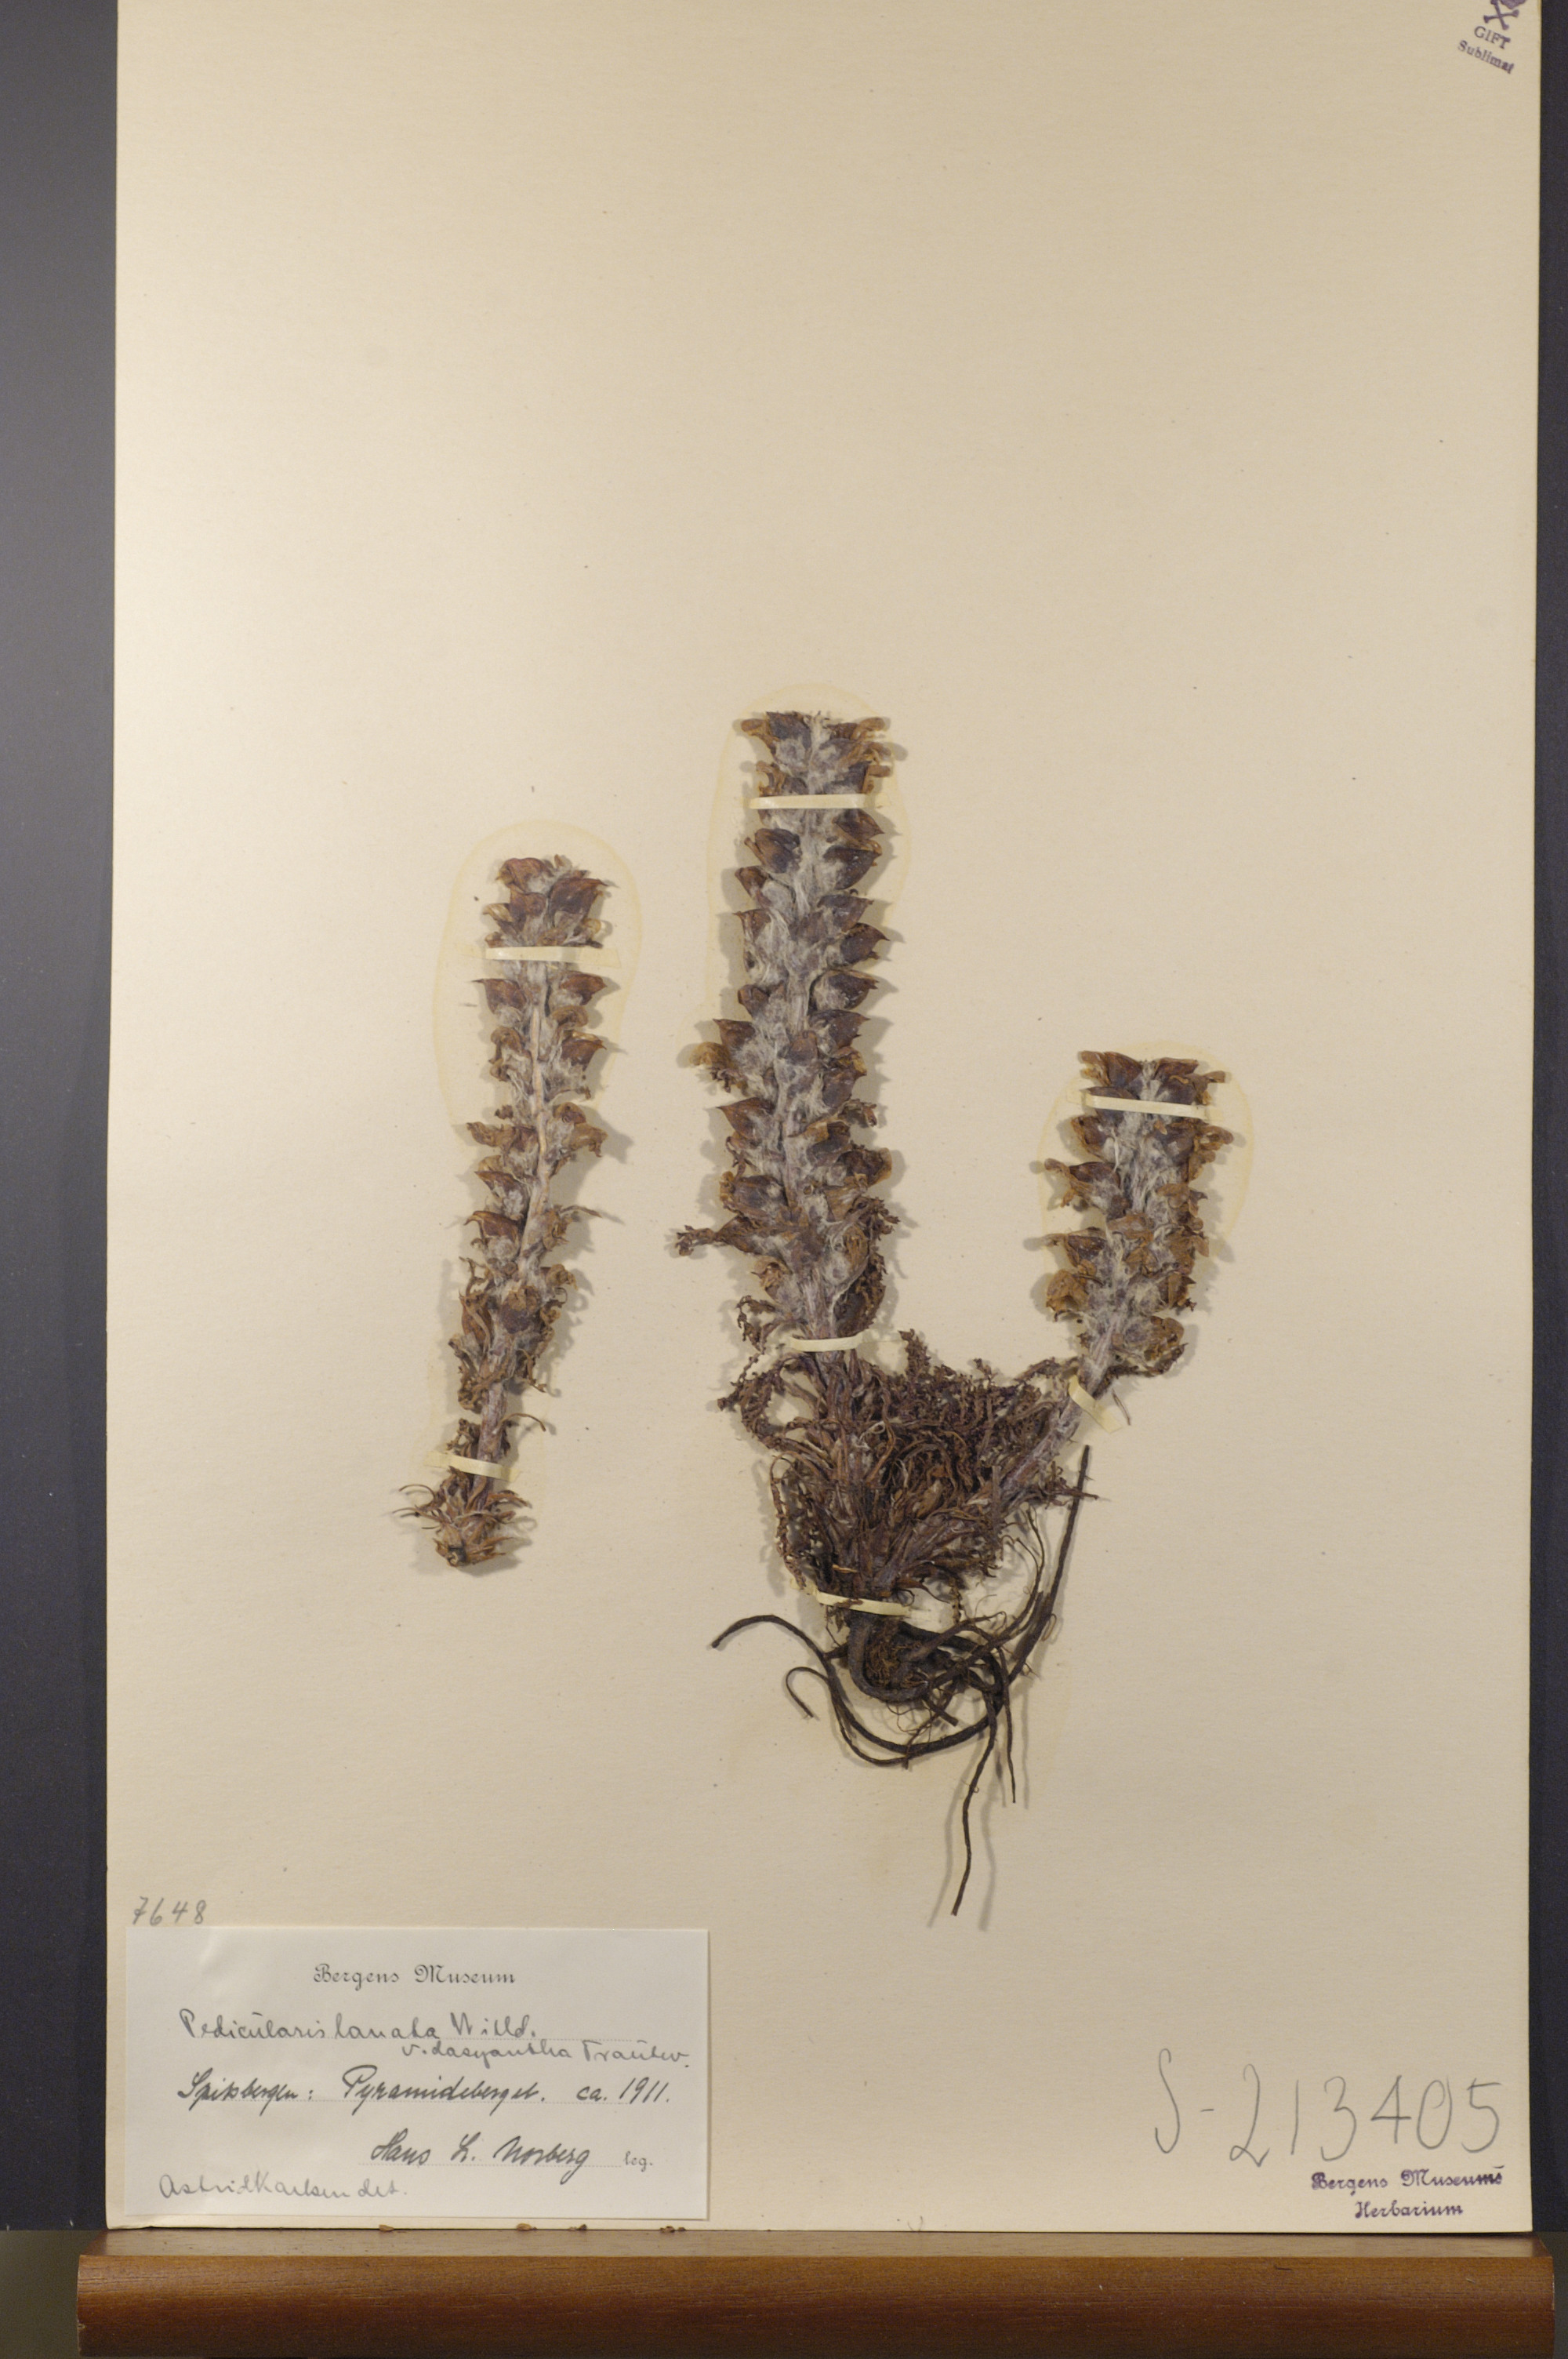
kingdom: Plantae
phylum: Tracheophyta
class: Magnoliopsida
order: Lamiales
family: Orobanchaceae
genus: Pedicularis
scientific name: Pedicularis dasyantha
